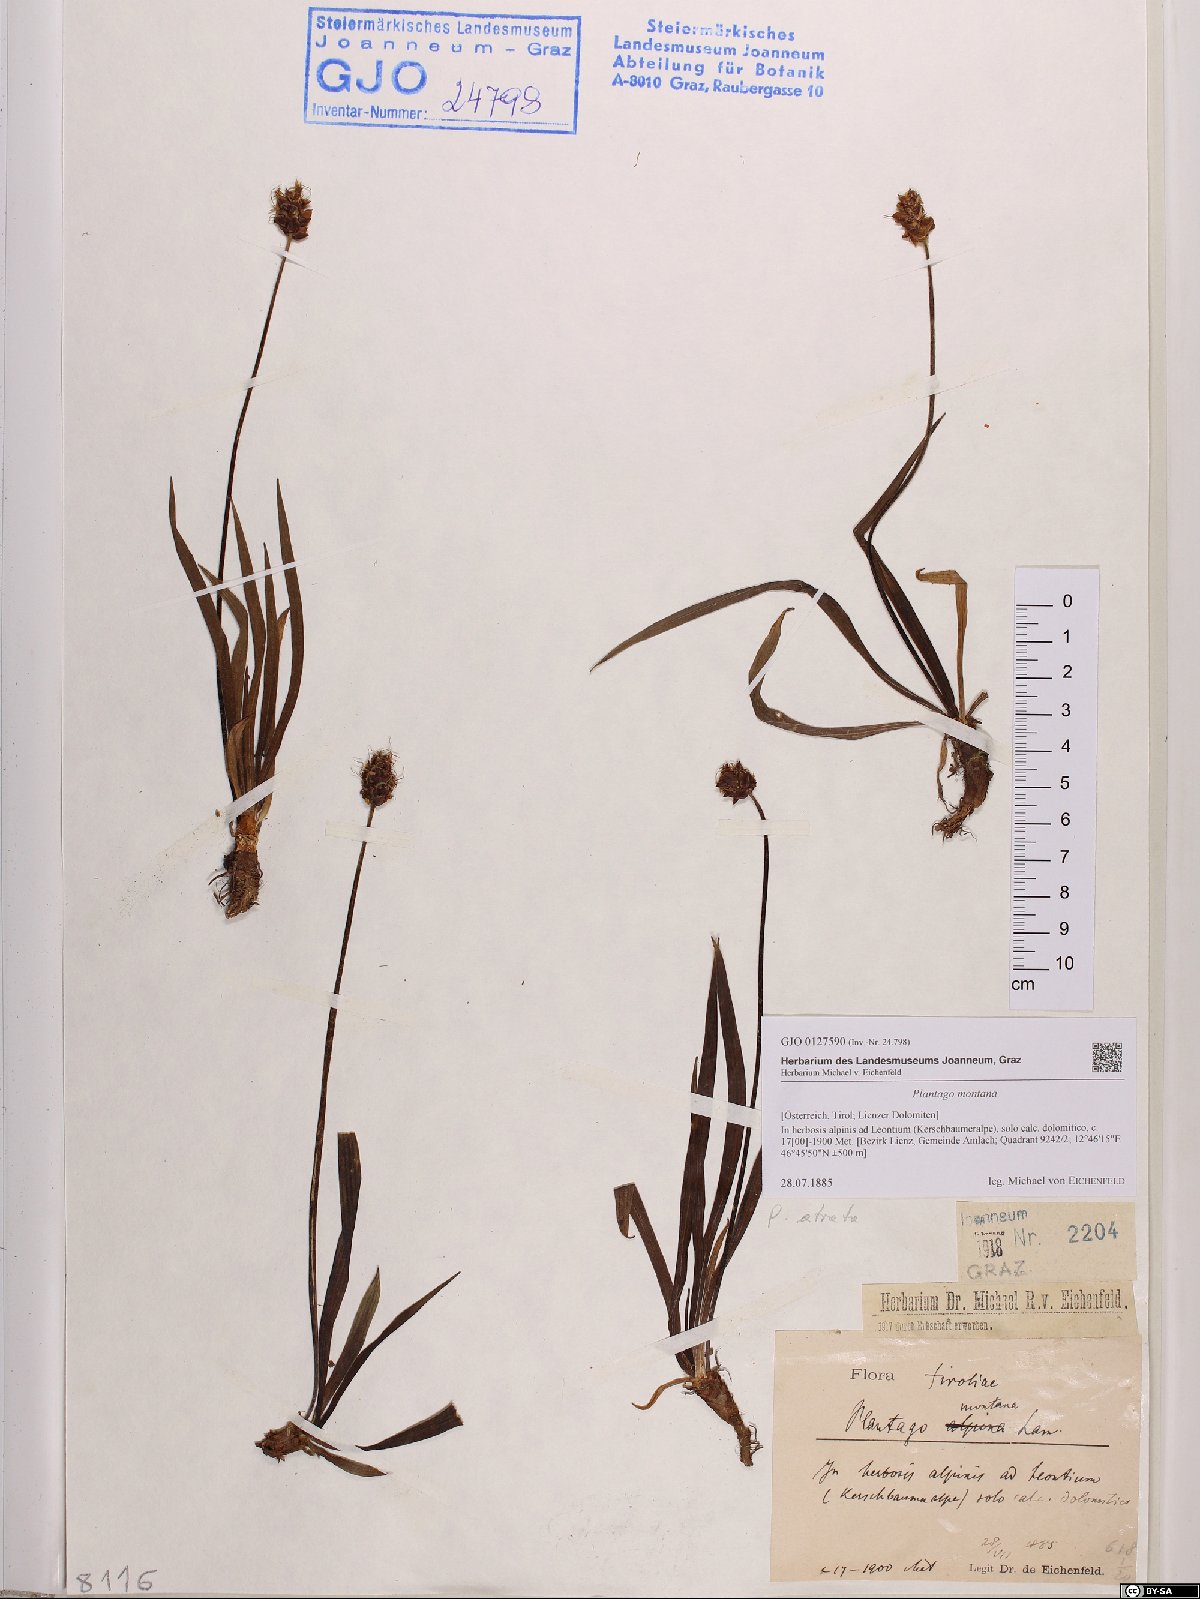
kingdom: Plantae
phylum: Tracheophyta
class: Magnoliopsida
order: Lamiales
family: Plantaginaceae
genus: Plantago
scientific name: Plantago atrata
